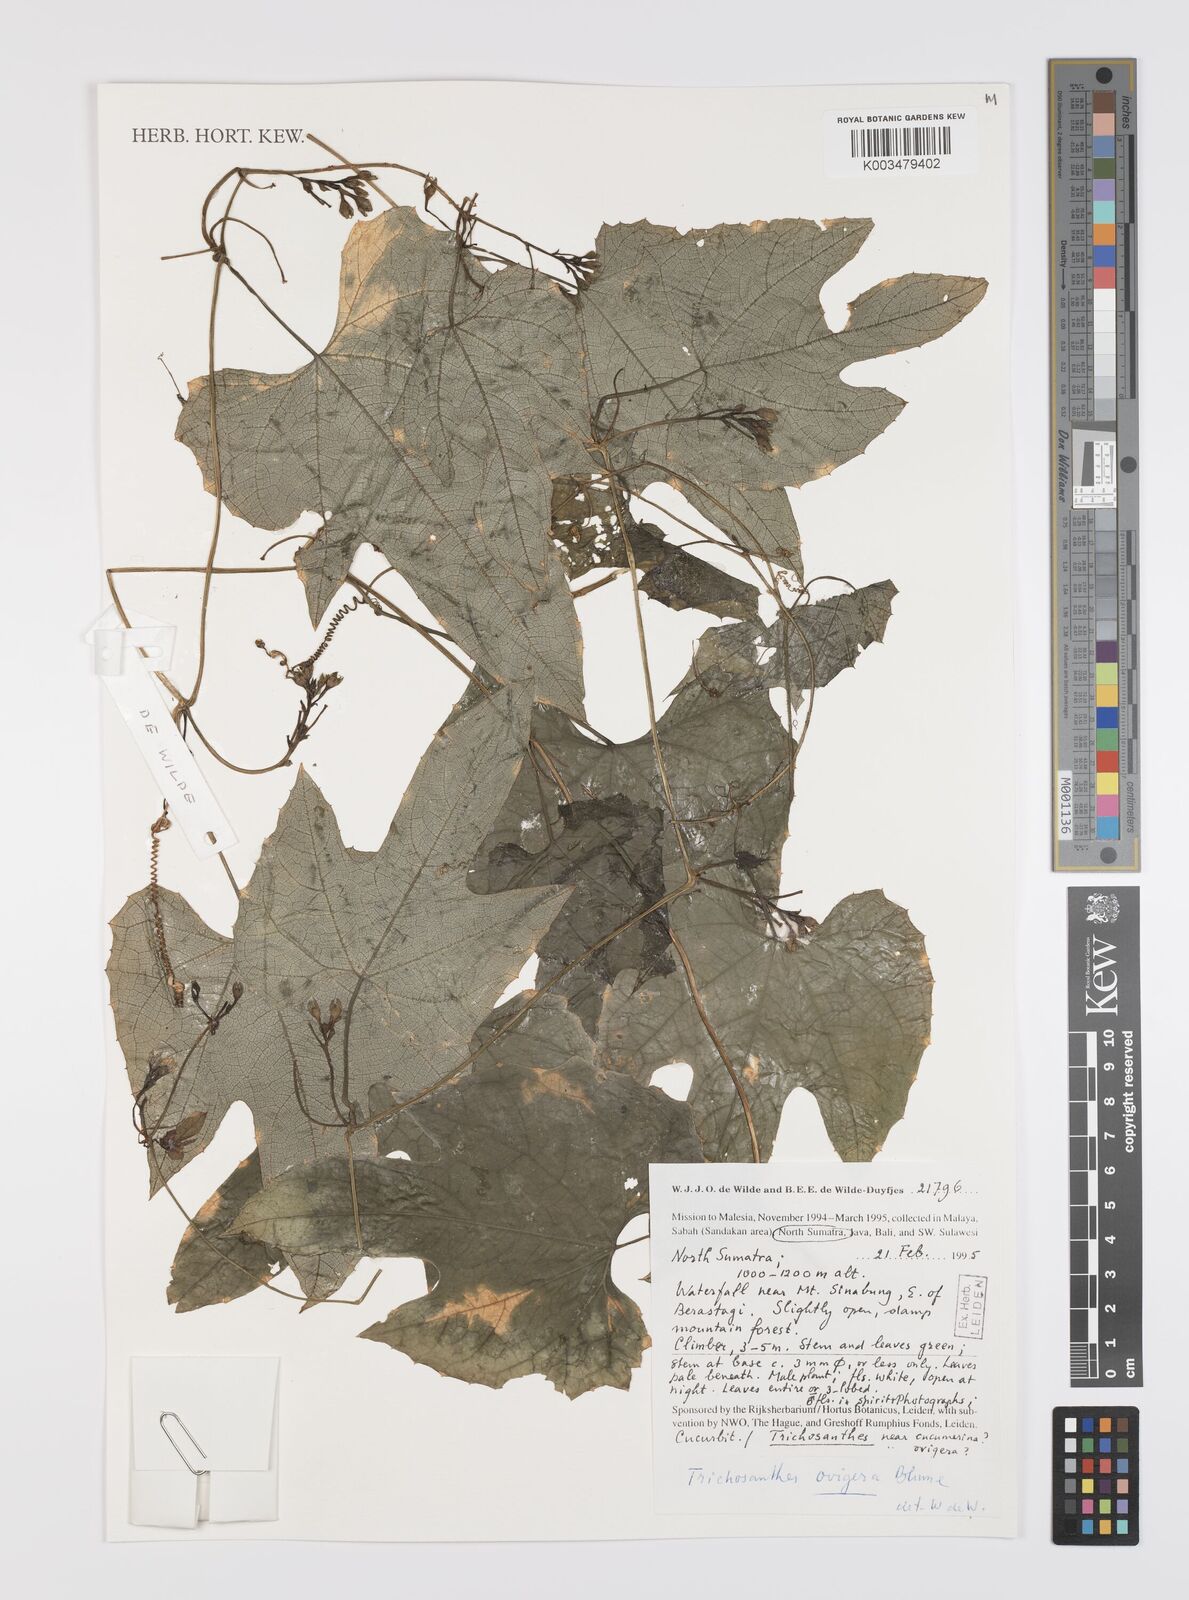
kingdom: Plantae
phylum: Tracheophyta
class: Magnoliopsida
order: Cucurbitales
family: Cucurbitaceae
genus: Trichosanthes
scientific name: Trichosanthes ovigera
